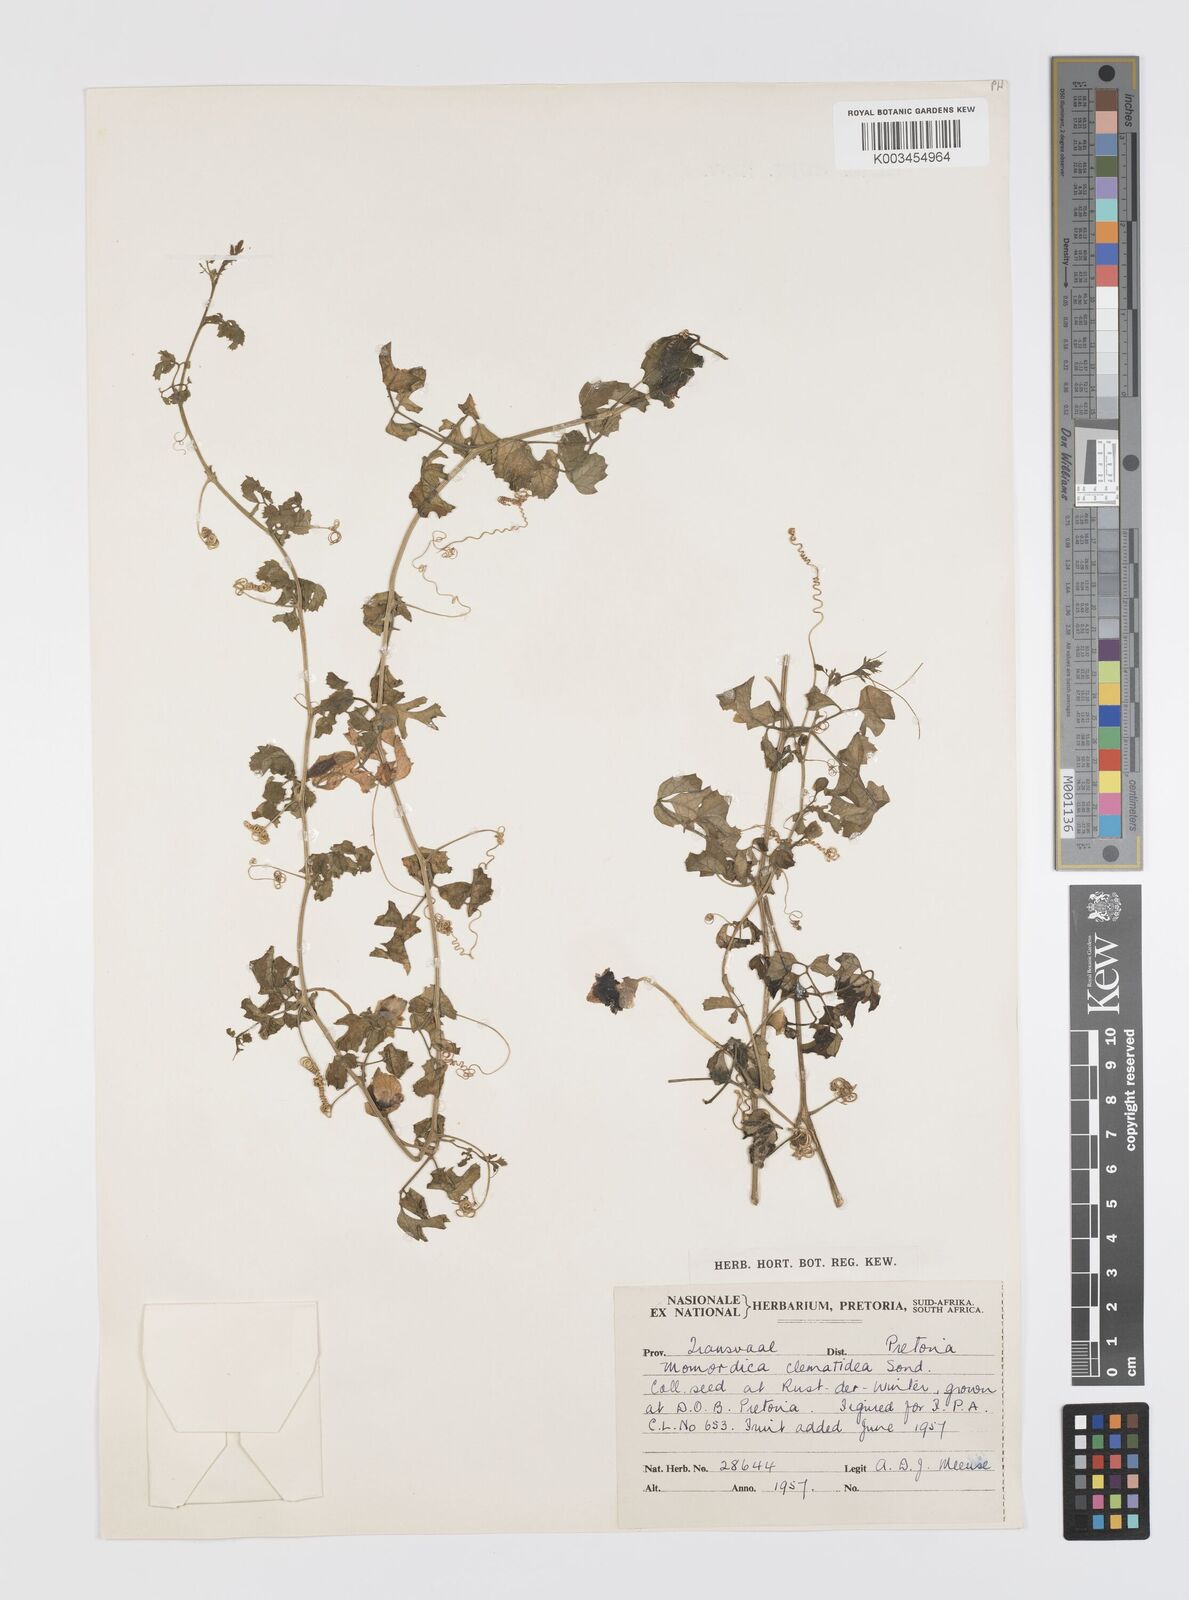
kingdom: Plantae
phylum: Tracheophyta
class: Magnoliopsida
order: Cucurbitales
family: Cucurbitaceae
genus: Momordica
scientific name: Momordica cardiospermoides
